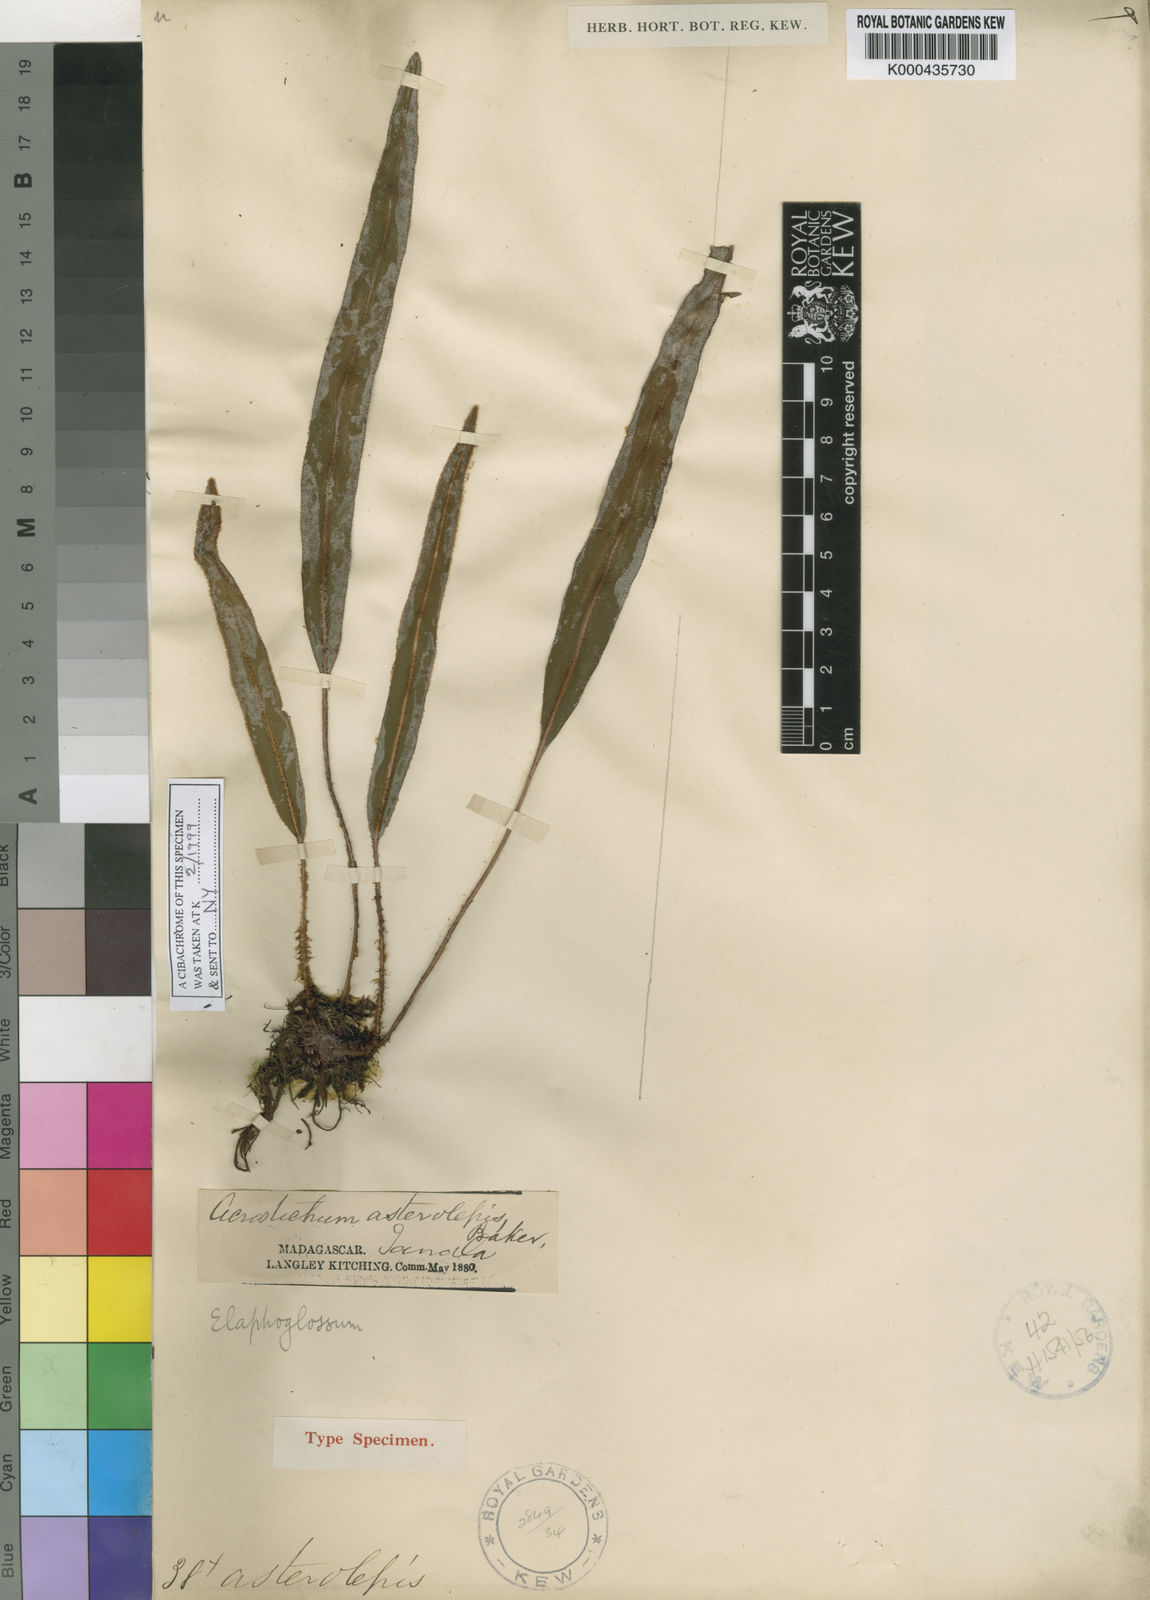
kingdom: Plantae
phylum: Tracheophyta
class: Polypodiopsida
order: Polypodiales
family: Dryopteridaceae
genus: Elaphoglossum
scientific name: Elaphoglossum asterolepis
